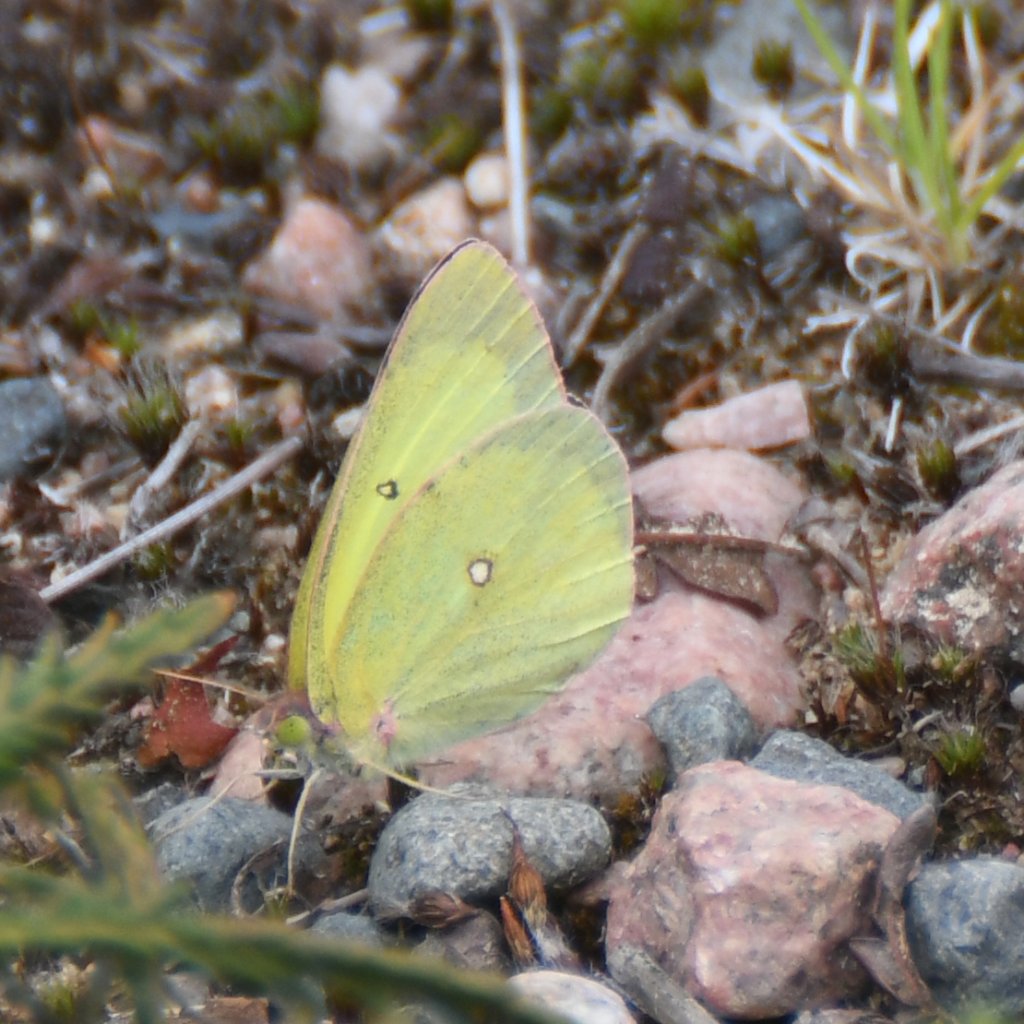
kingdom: Animalia
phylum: Arthropoda
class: Insecta
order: Lepidoptera
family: Pieridae
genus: Colias
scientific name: Colias interior
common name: Pink-edged Sulphur
